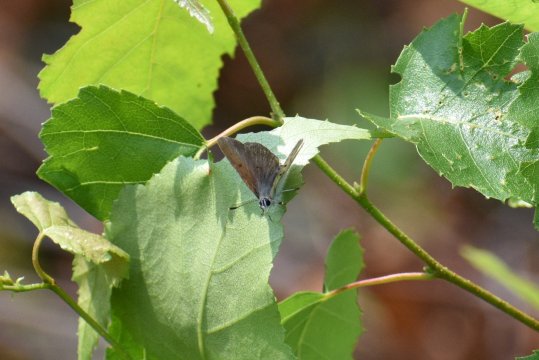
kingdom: Animalia
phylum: Arthropoda
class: Insecta
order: Lepidoptera
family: Sesiidae
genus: Sesia
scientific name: Sesia Lycaena epixanthe
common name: Bog Copper
